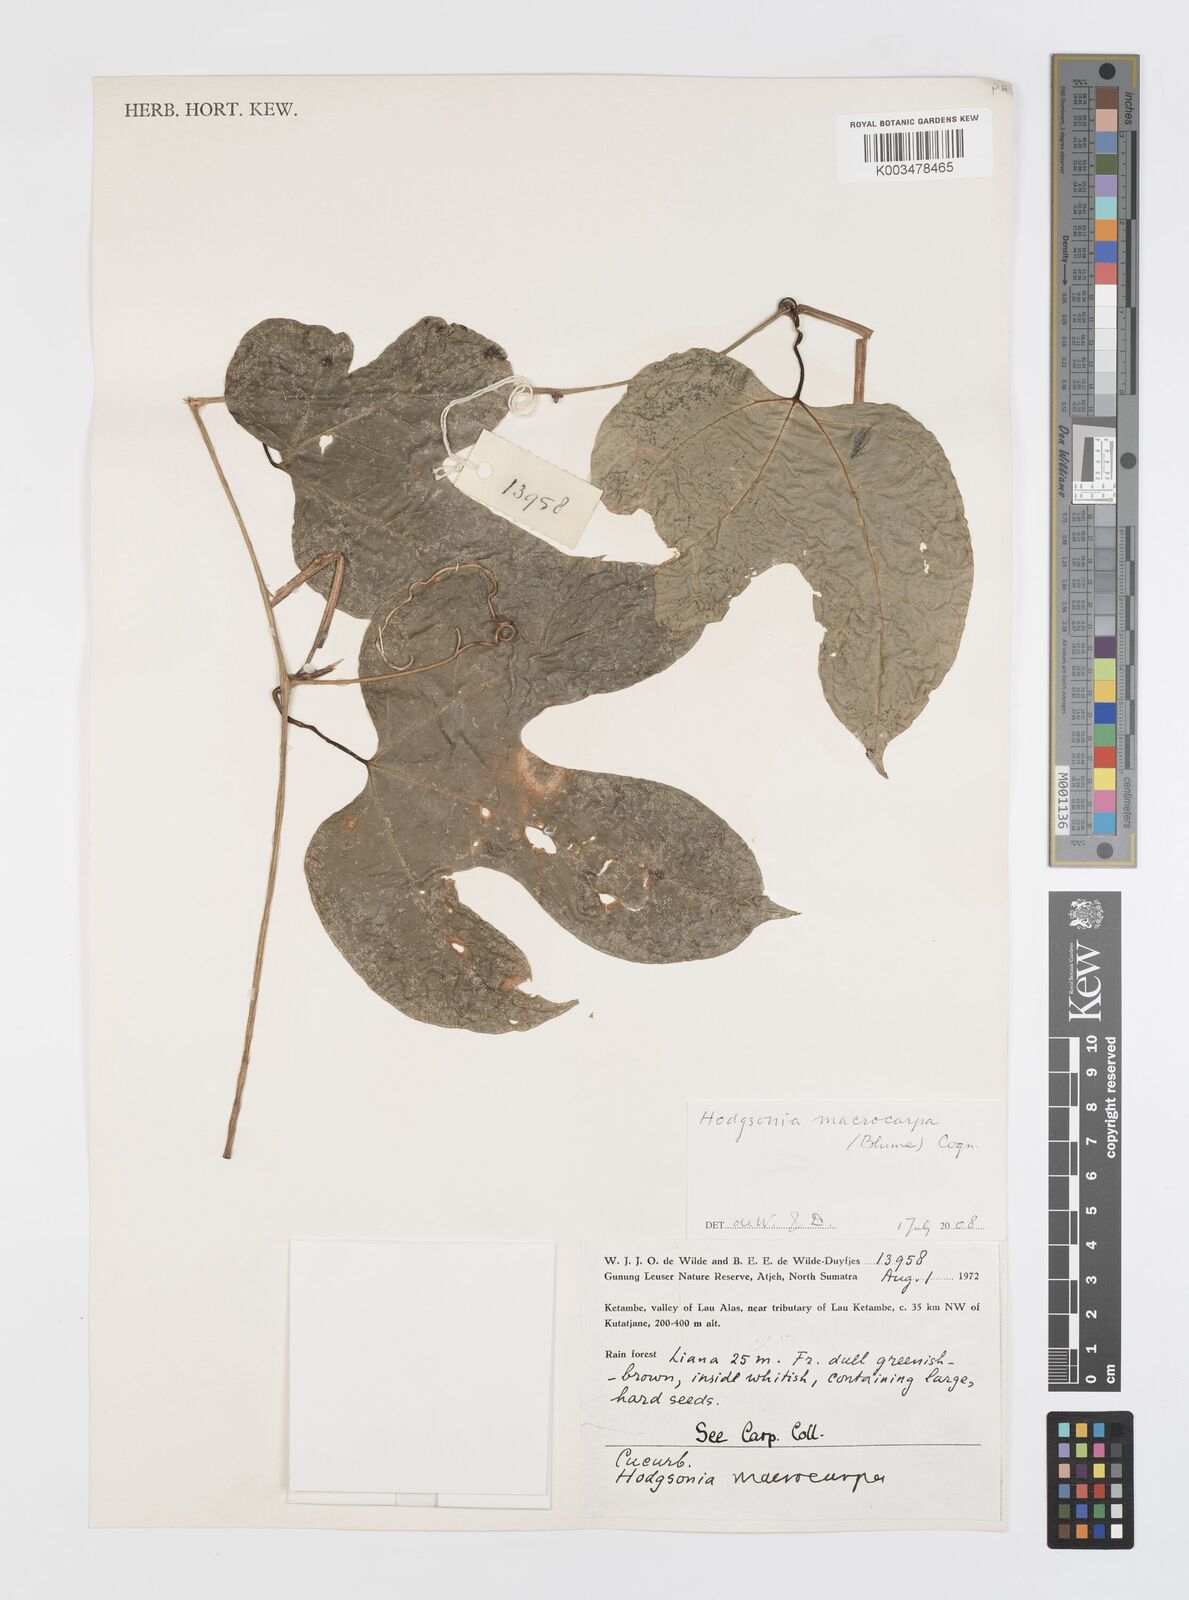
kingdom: Plantae
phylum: Tracheophyta
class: Magnoliopsida
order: Cucurbitales
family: Cucurbitaceae
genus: Hodgsonia
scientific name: Hodgsonia macrocarpa
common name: Chinese lardfruit
